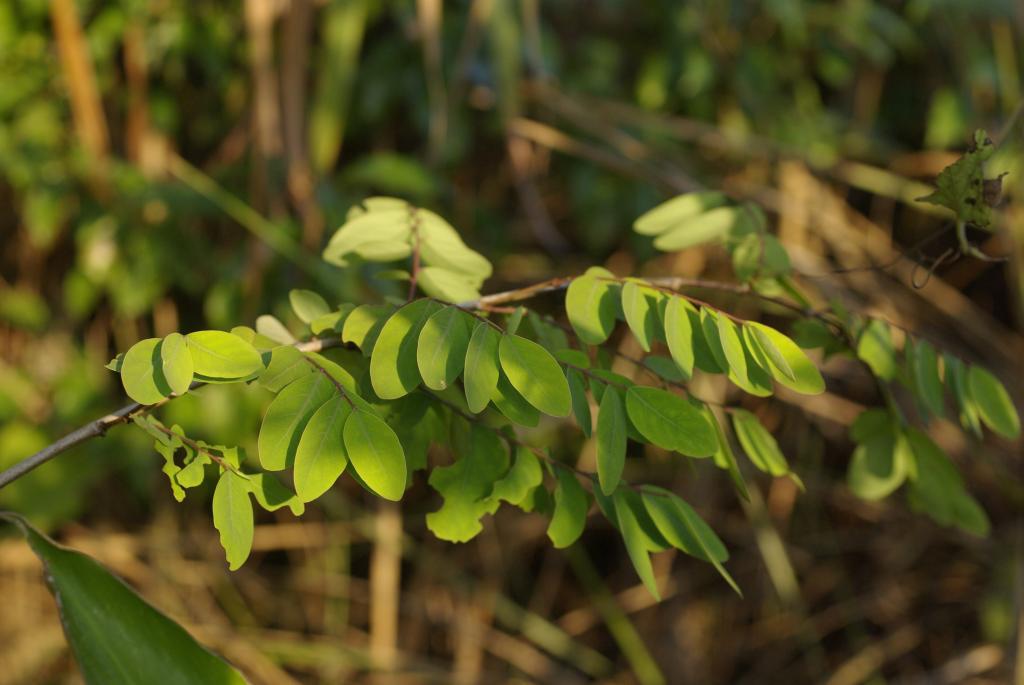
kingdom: Plantae
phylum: Tracheophyta
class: Magnoliopsida
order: Malpighiales
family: Phyllanthaceae
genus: Breynia
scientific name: Breynia officinalis
